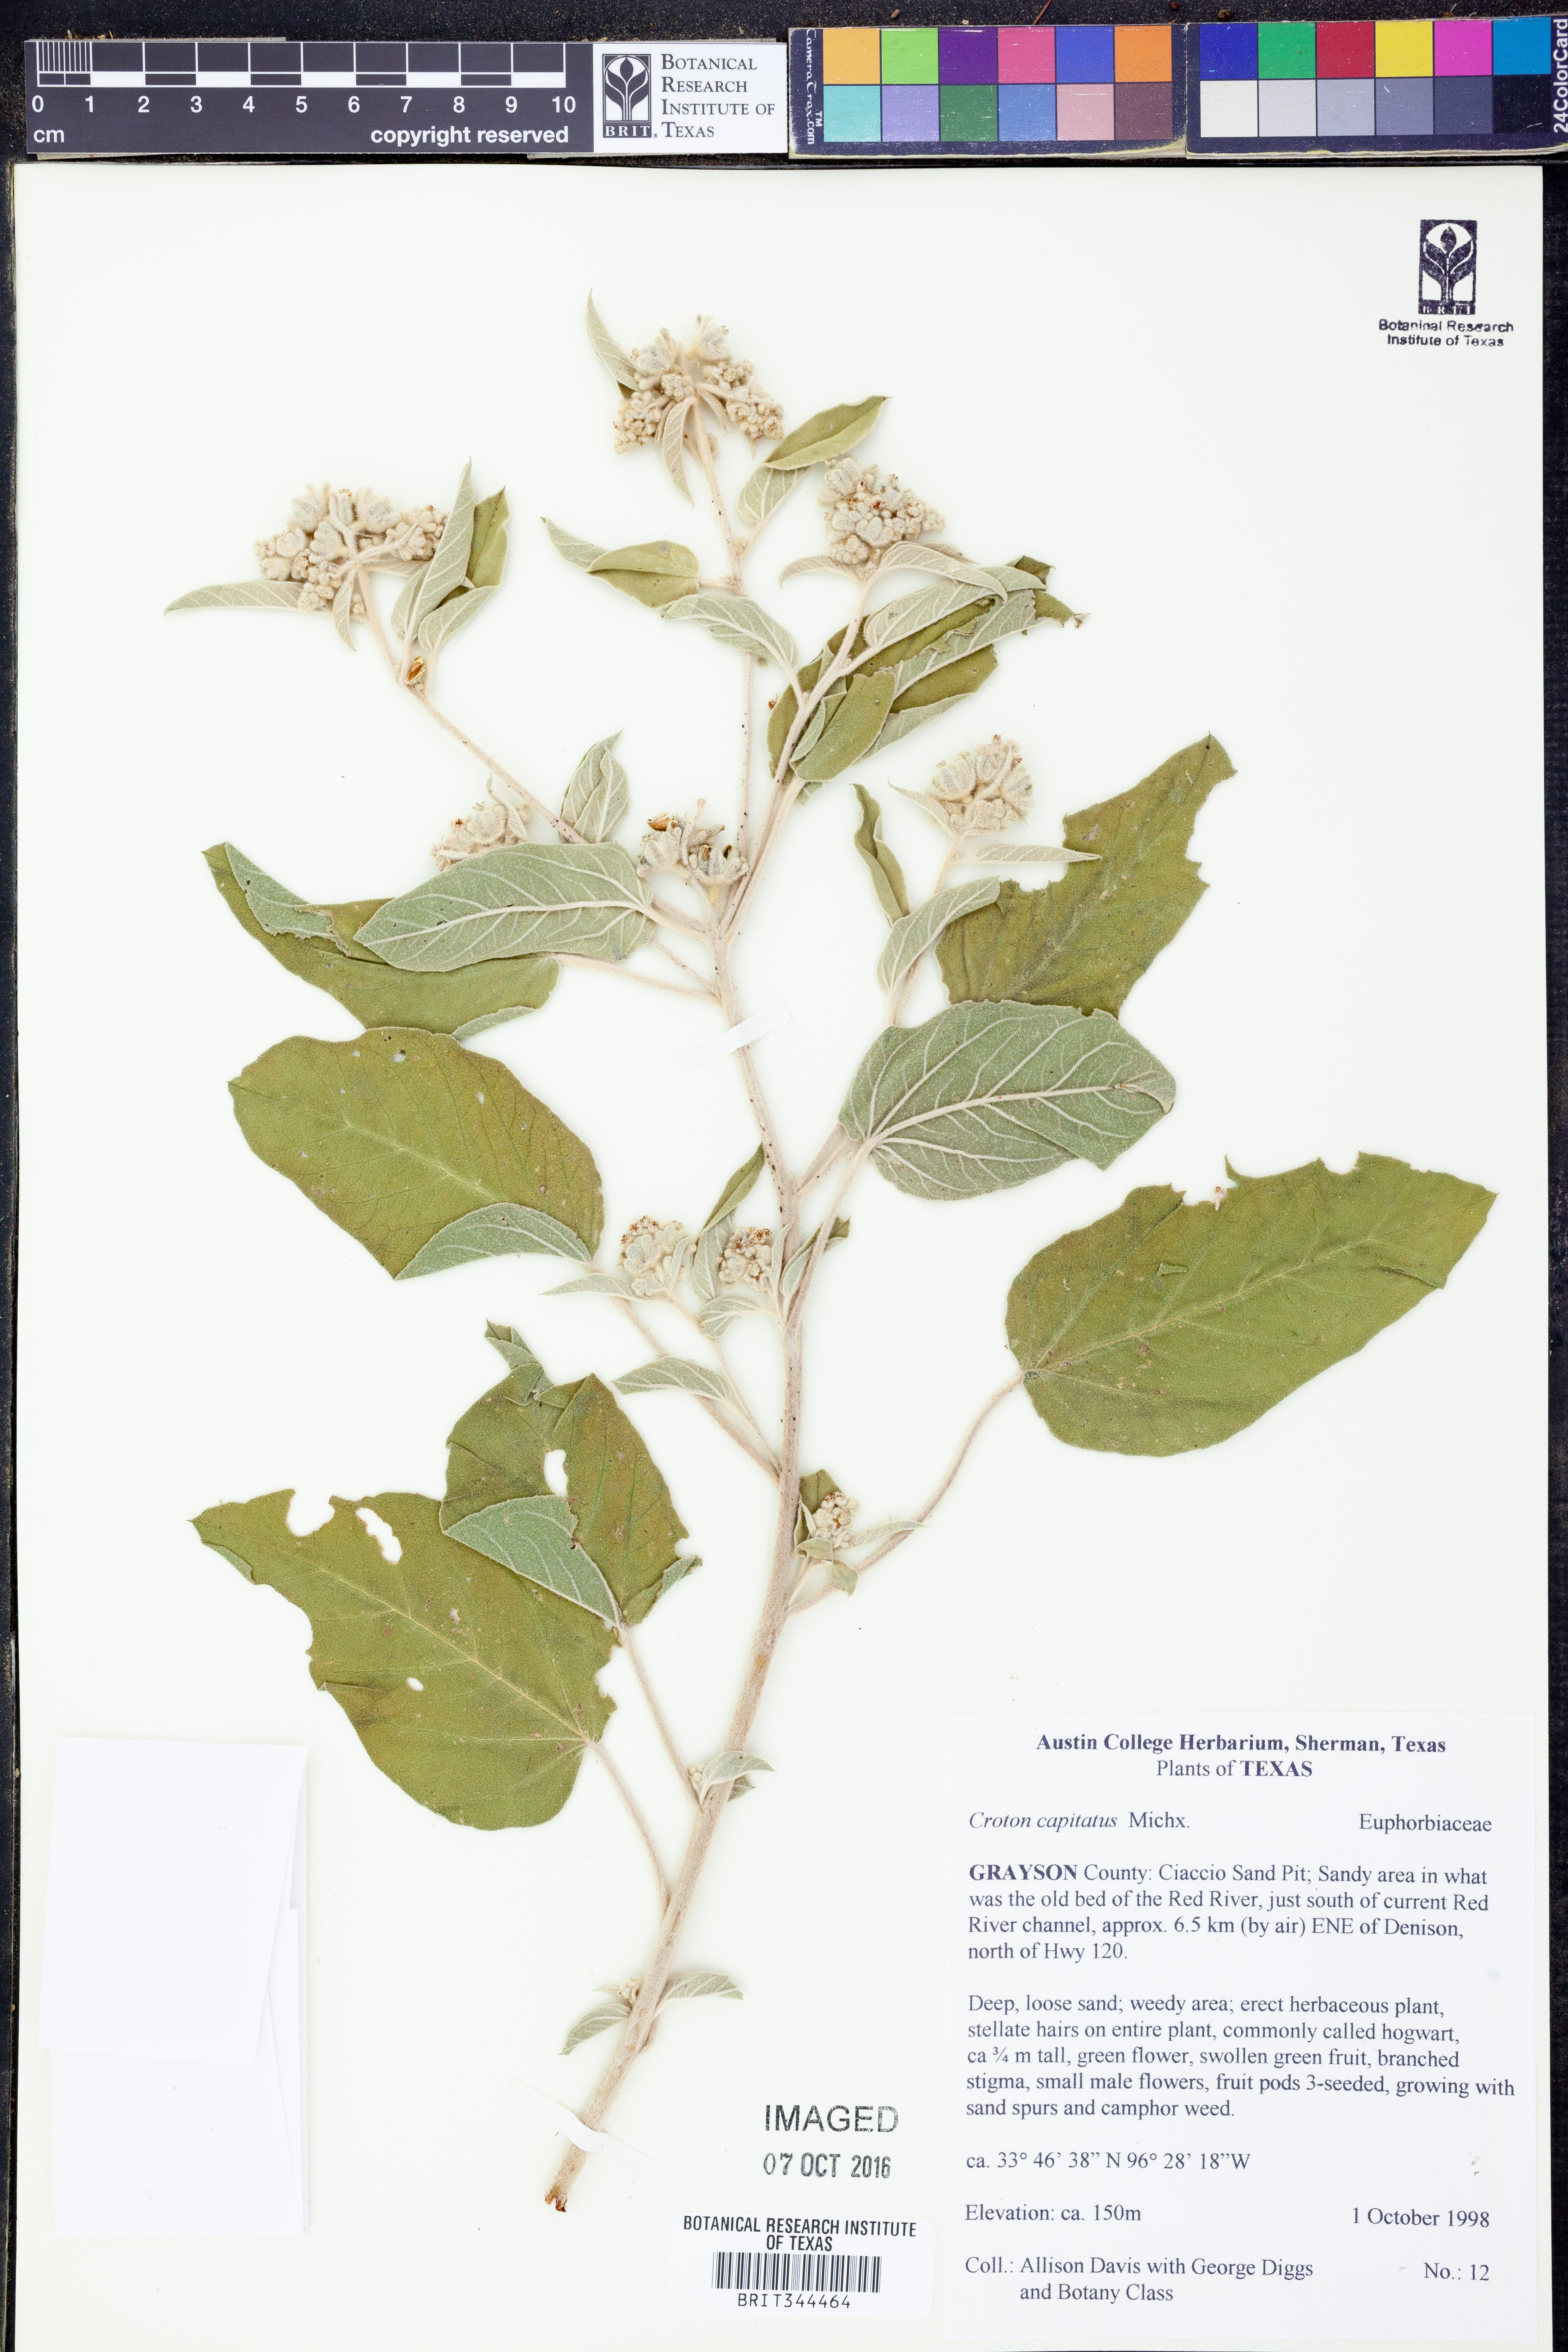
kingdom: Plantae
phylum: Tracheophyta
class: Magnoliopsida
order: Malpighiales
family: Euphorbiaceae
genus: Croton
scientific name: Croton capitatus
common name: Woolly croton
